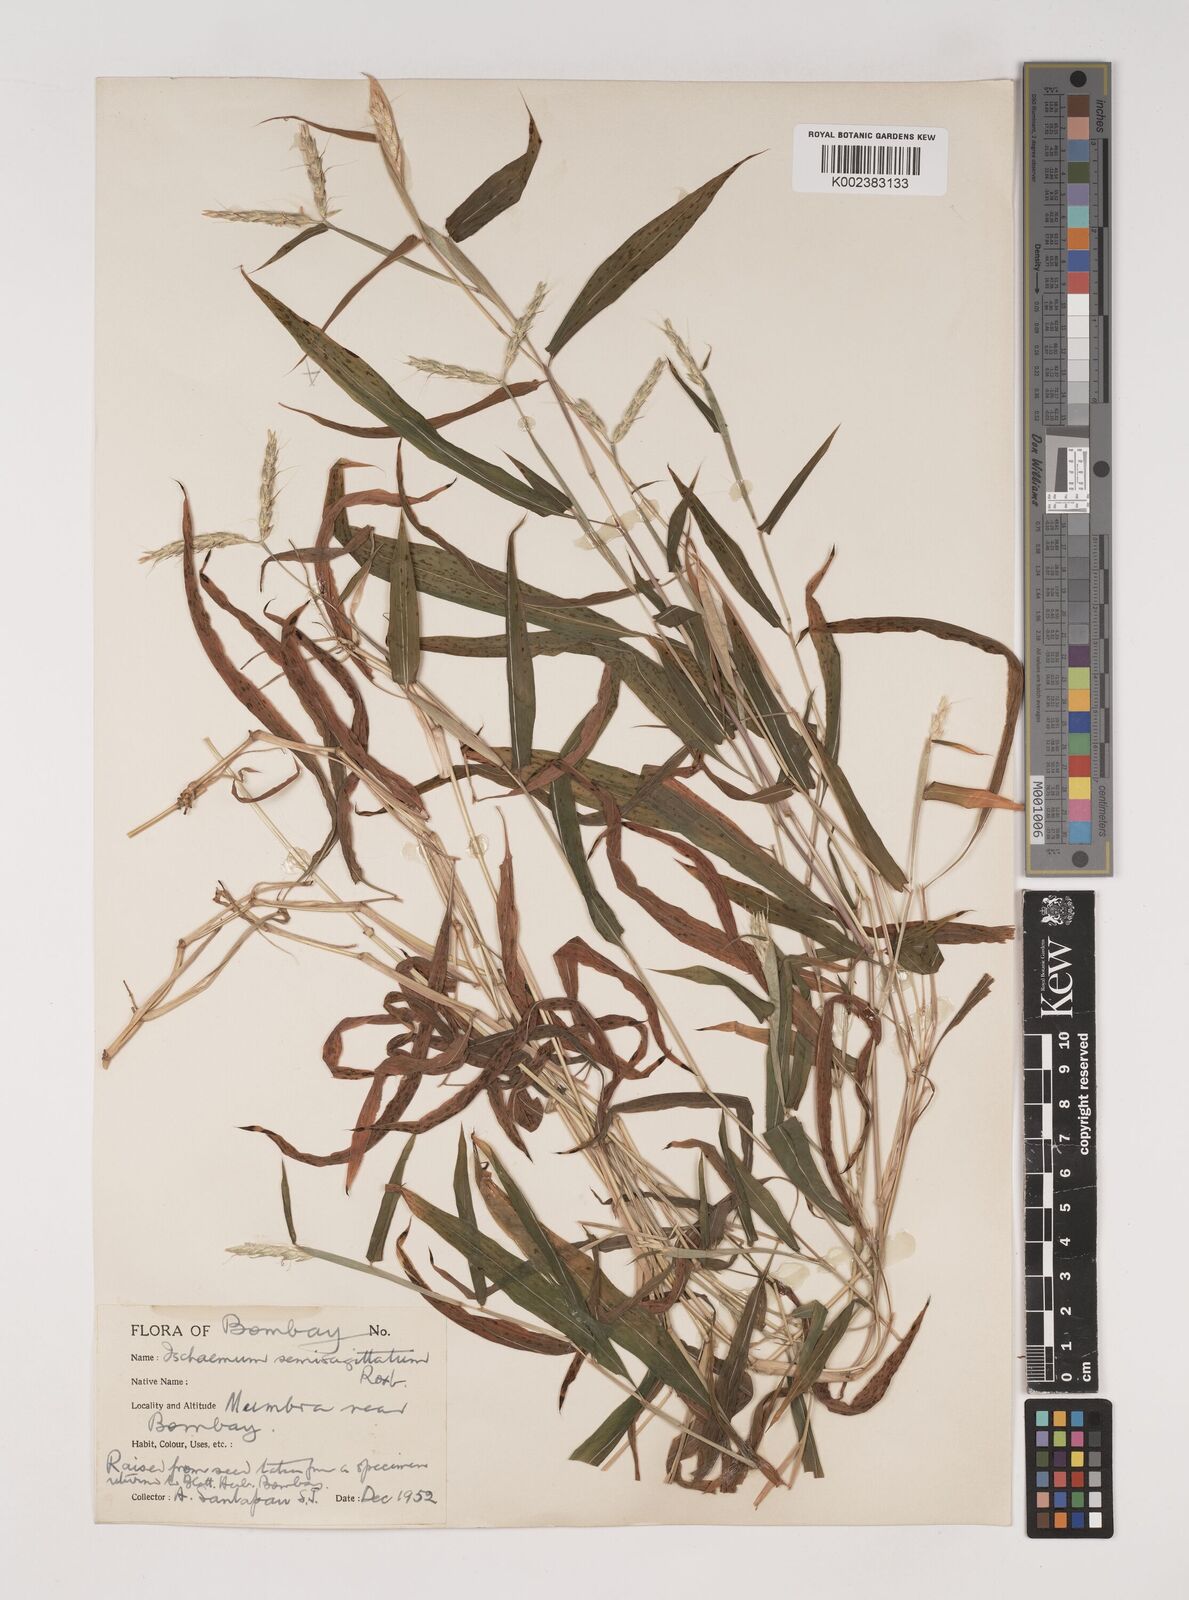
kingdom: Plantae
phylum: Tracheophyta
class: Liliopsida
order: Poales
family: Poaceae
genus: Ischaemum
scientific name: Ischaemum semisagittatum
